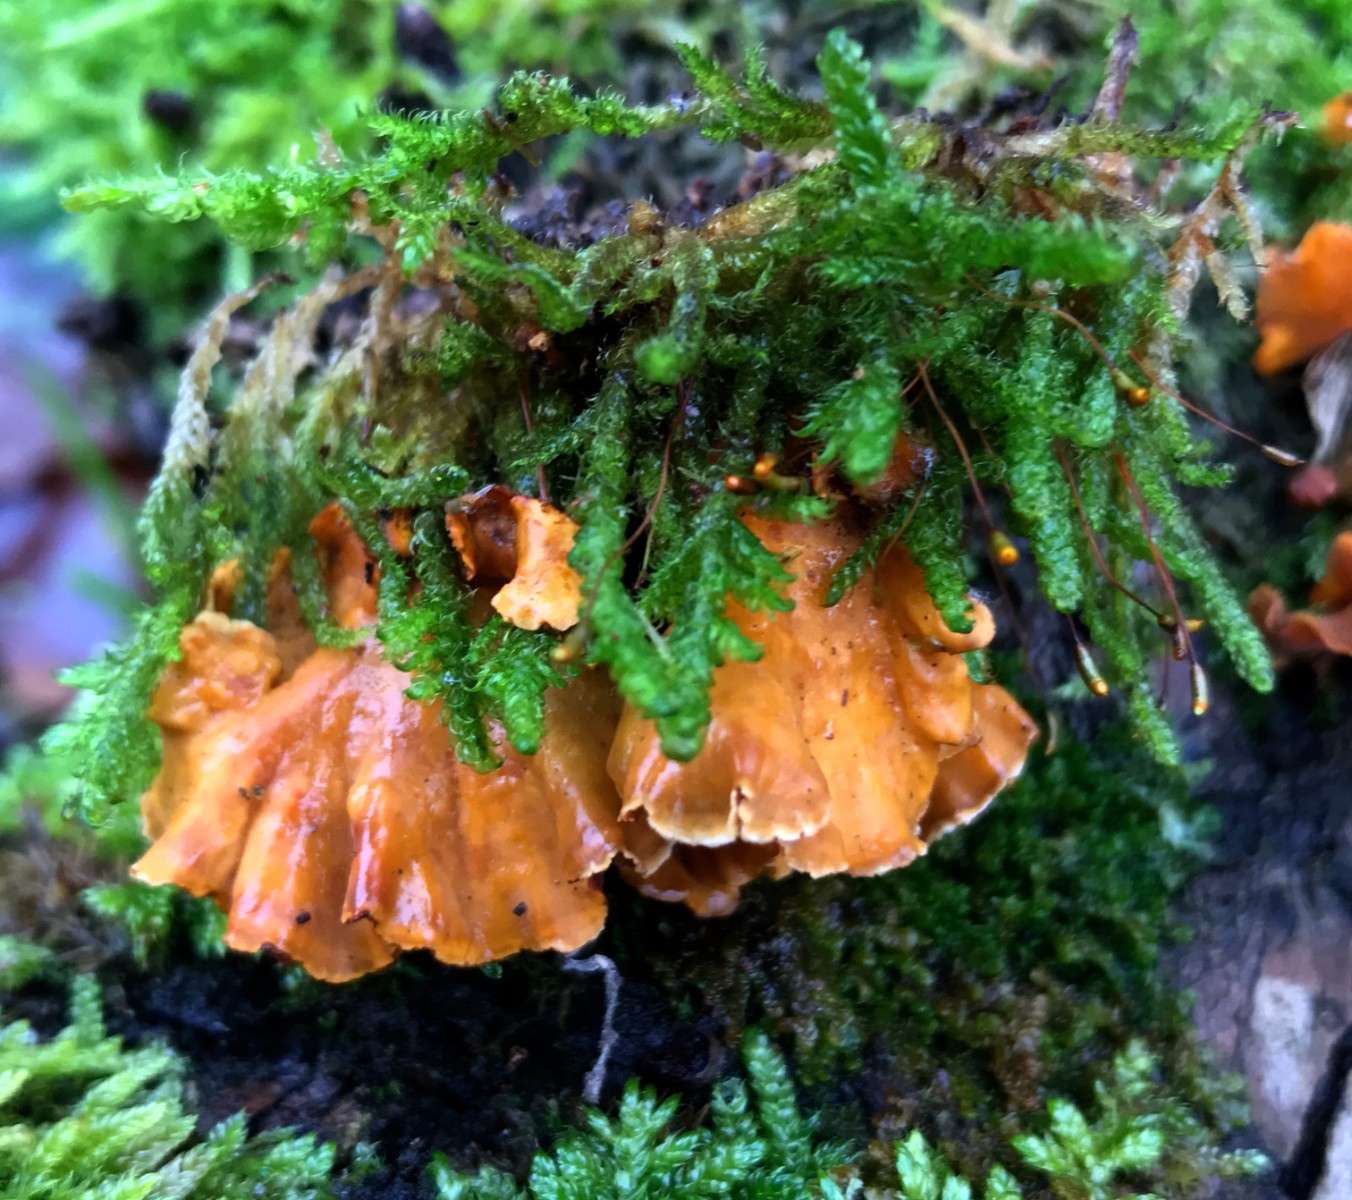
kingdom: Fungi
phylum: Basidiomycota
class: Agaricomycetes
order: Russulales
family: Stereaceae
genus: Stereum
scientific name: Stereum hirsutum
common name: håret lædersvamp
